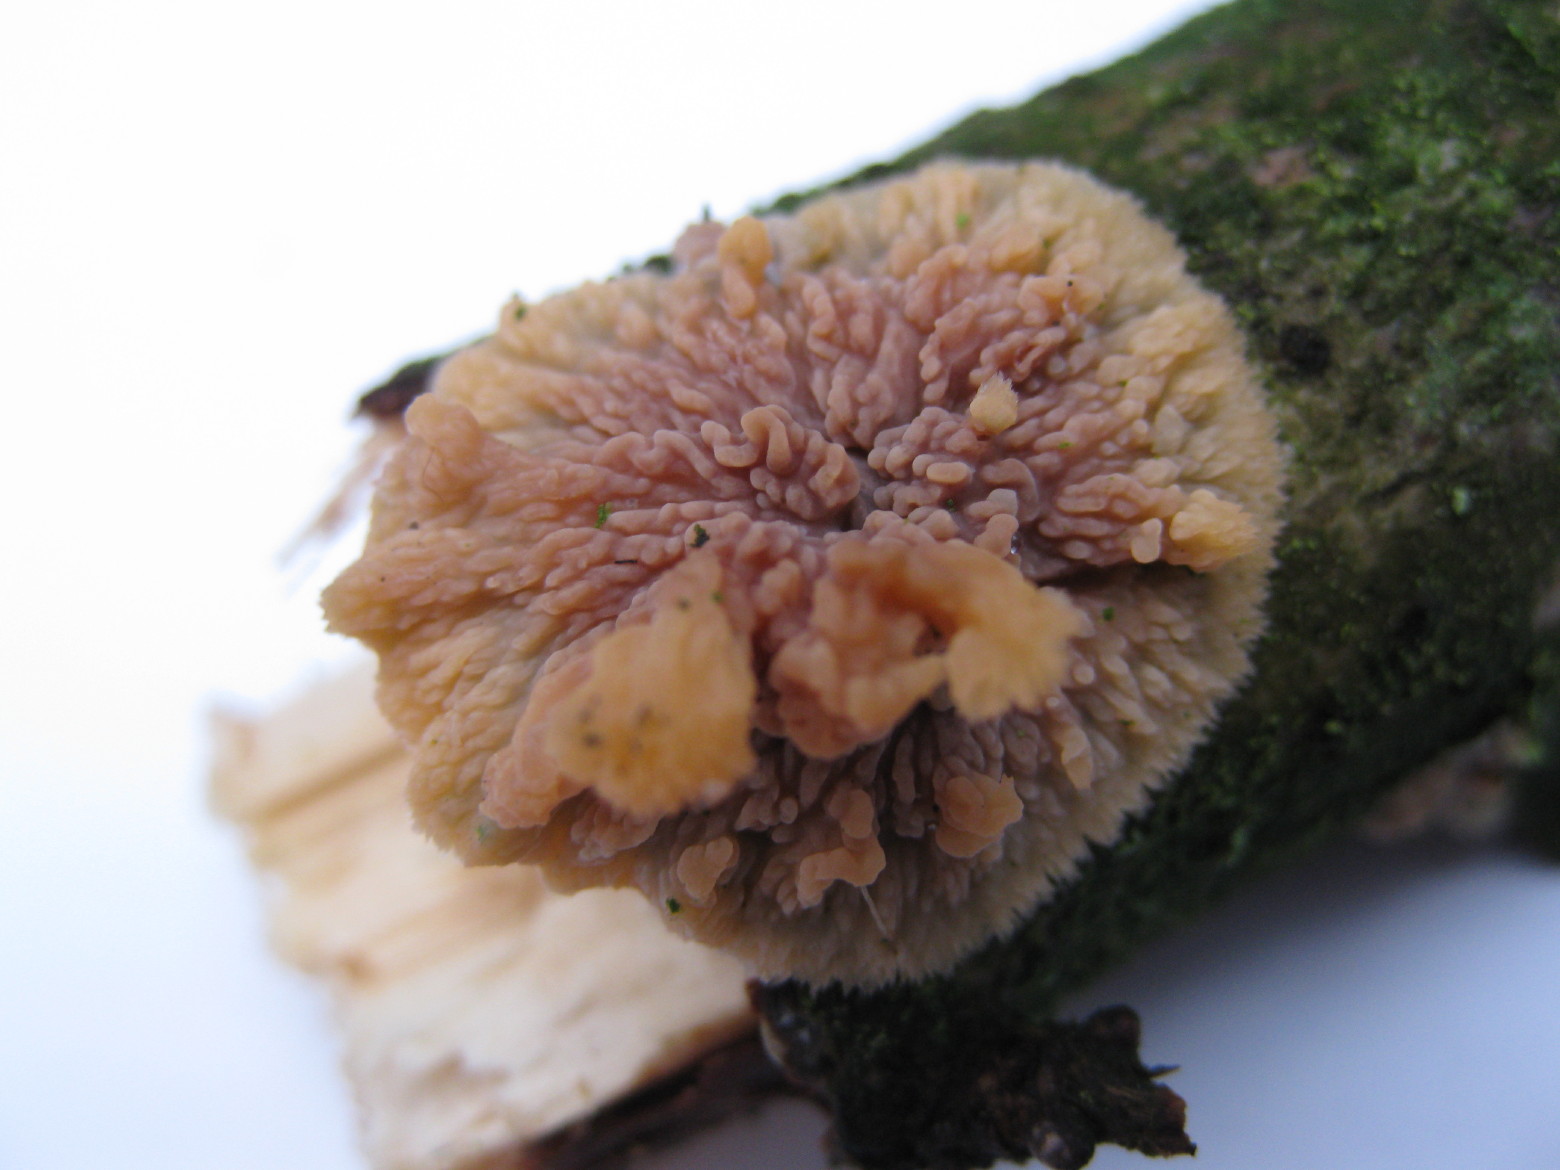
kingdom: Fungi
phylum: Basidiomycota
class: Agaricomycetes
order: Polyporales
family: Meruliaceae
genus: Phlebia
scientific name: Phlebia radiata
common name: stråle-åresvamp
